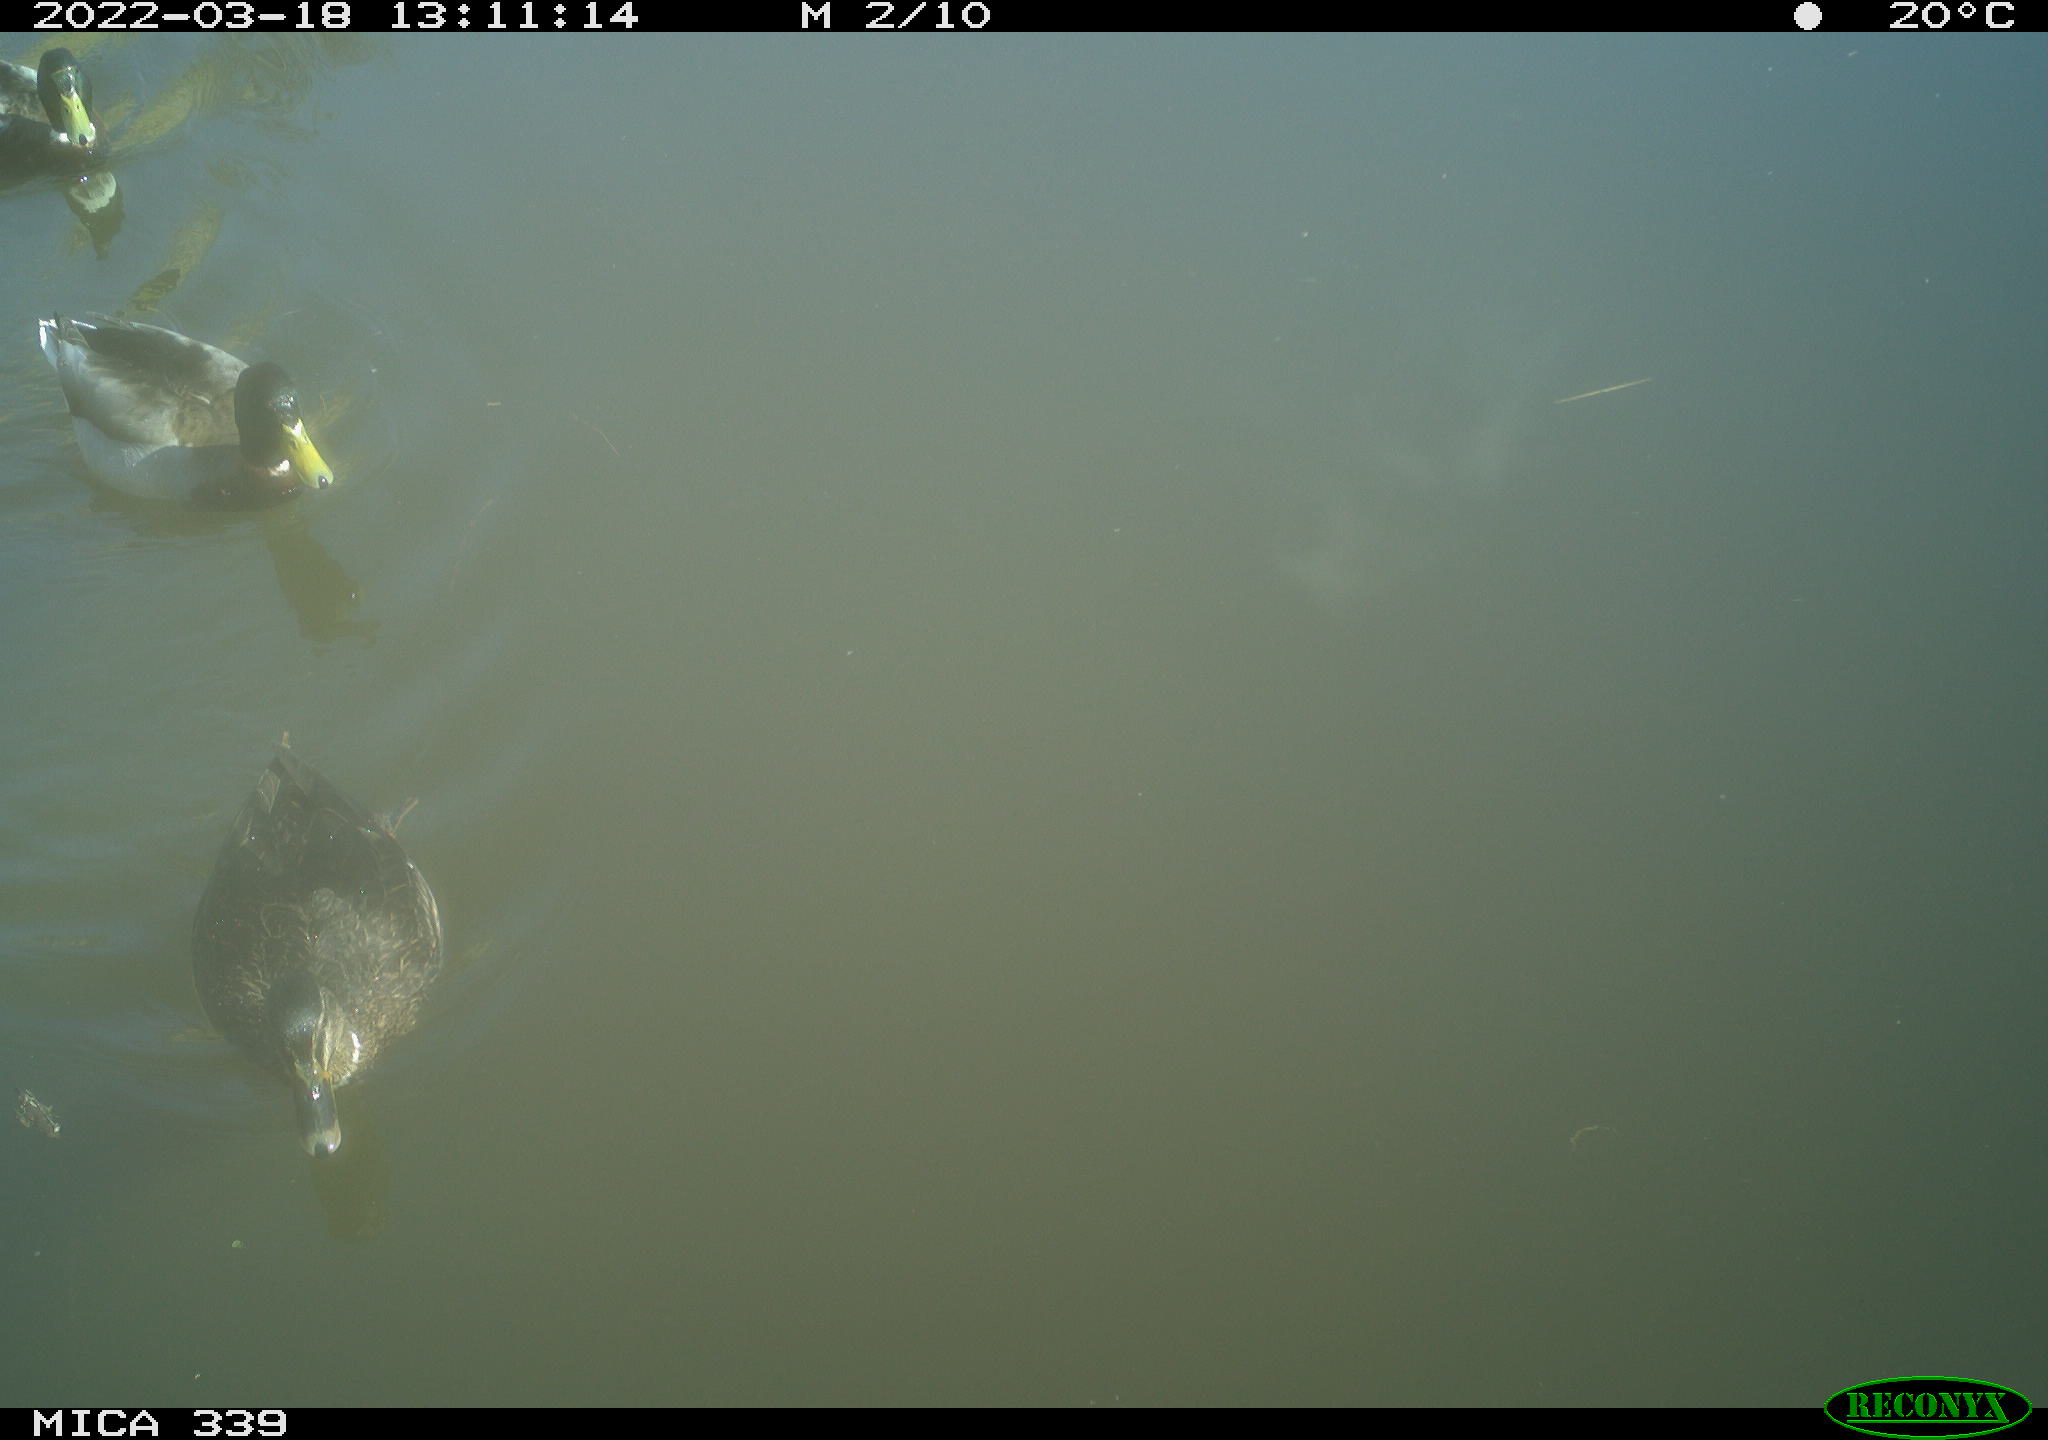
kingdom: Animalia
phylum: Chordata
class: Aves
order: Anseriformes
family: Anatidae
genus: Anas
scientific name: Anas platyrhynchos
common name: Mallard
